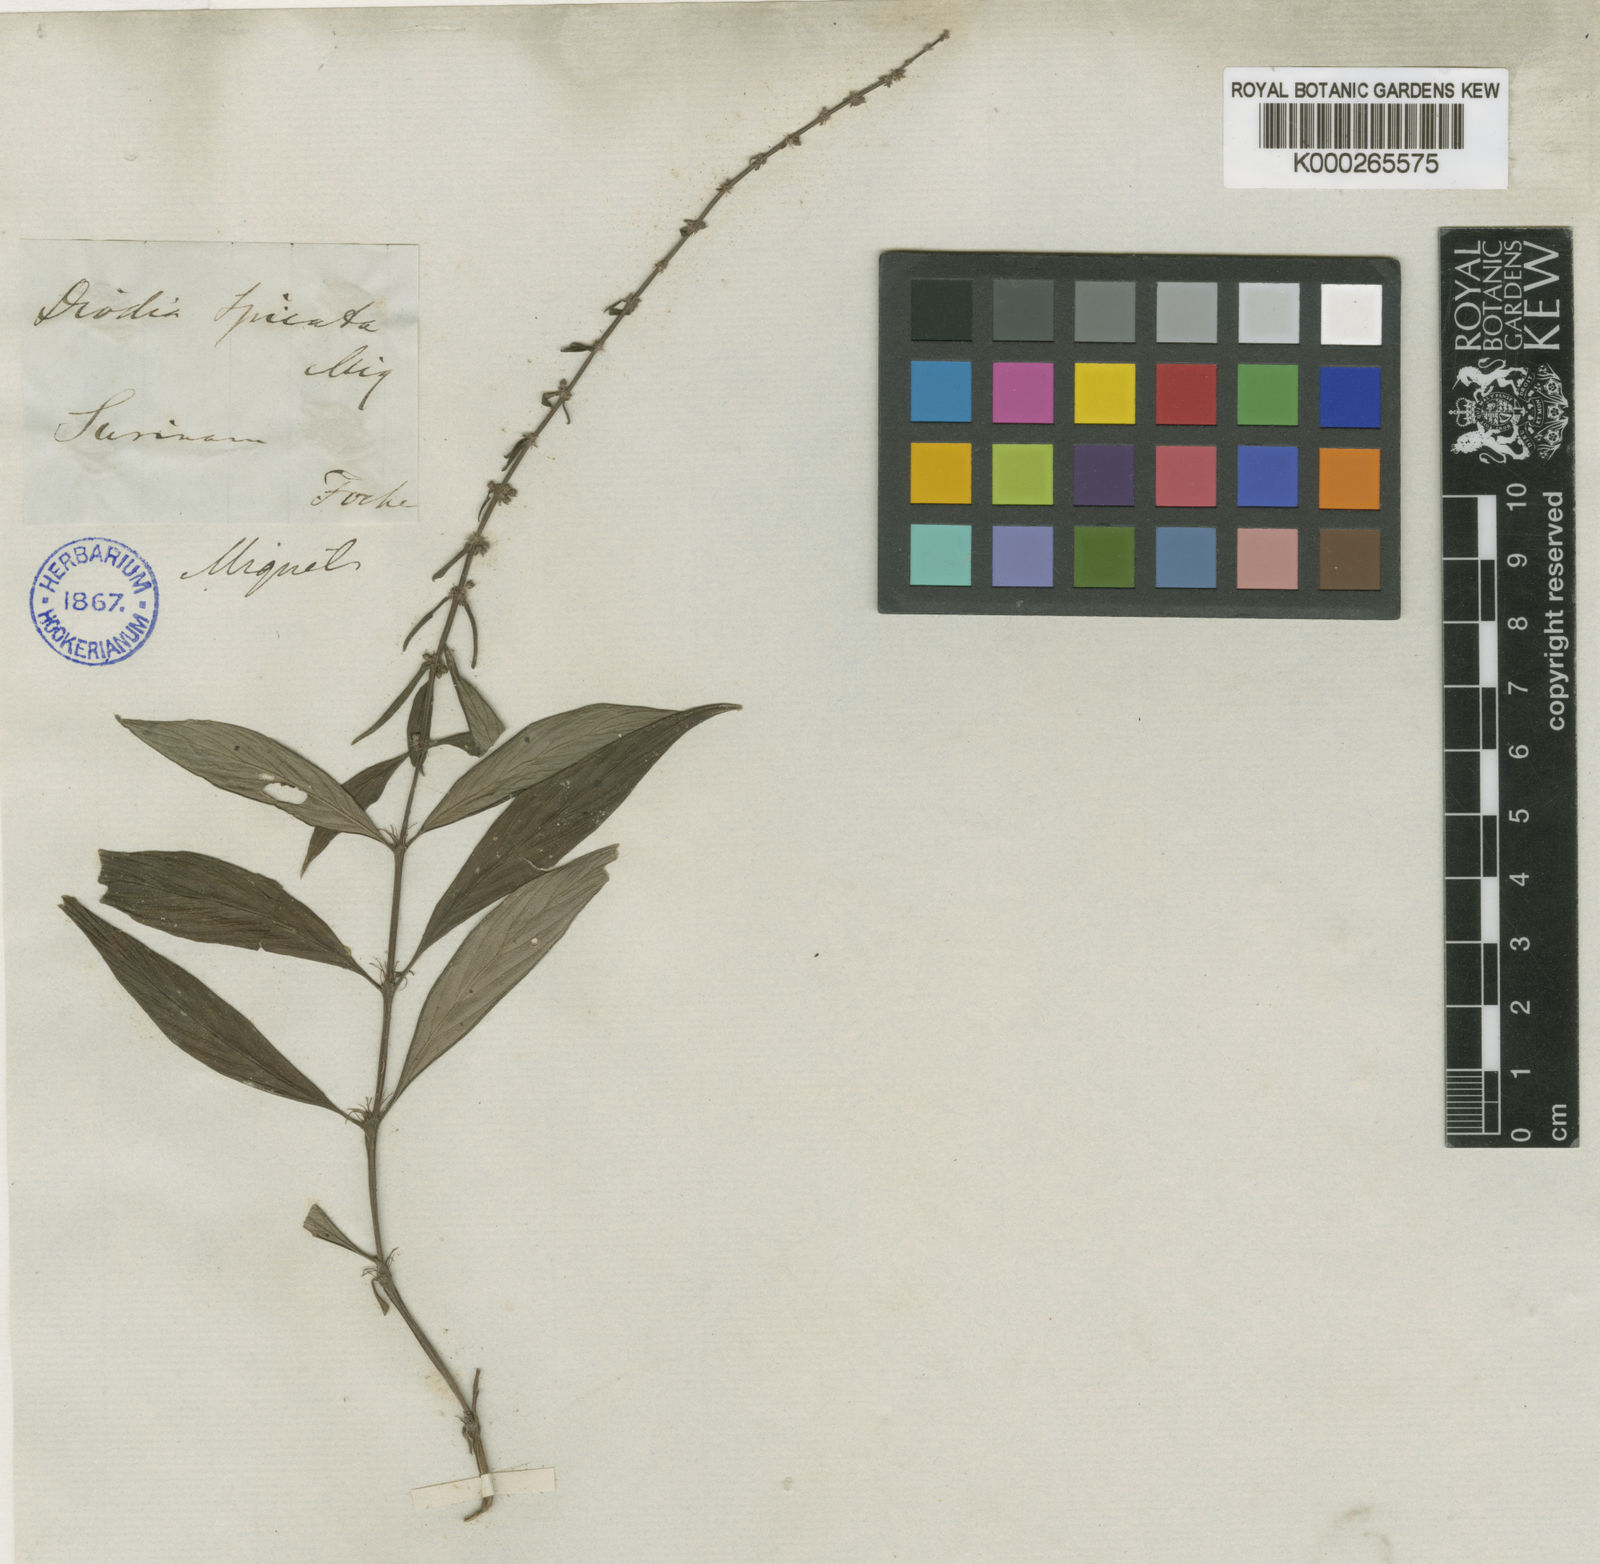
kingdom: Plantae
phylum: Tracheophyta
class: Magnoliopsida
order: Gentianales
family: Rubiaceae
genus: Galianthe
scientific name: Galianthe spicata
